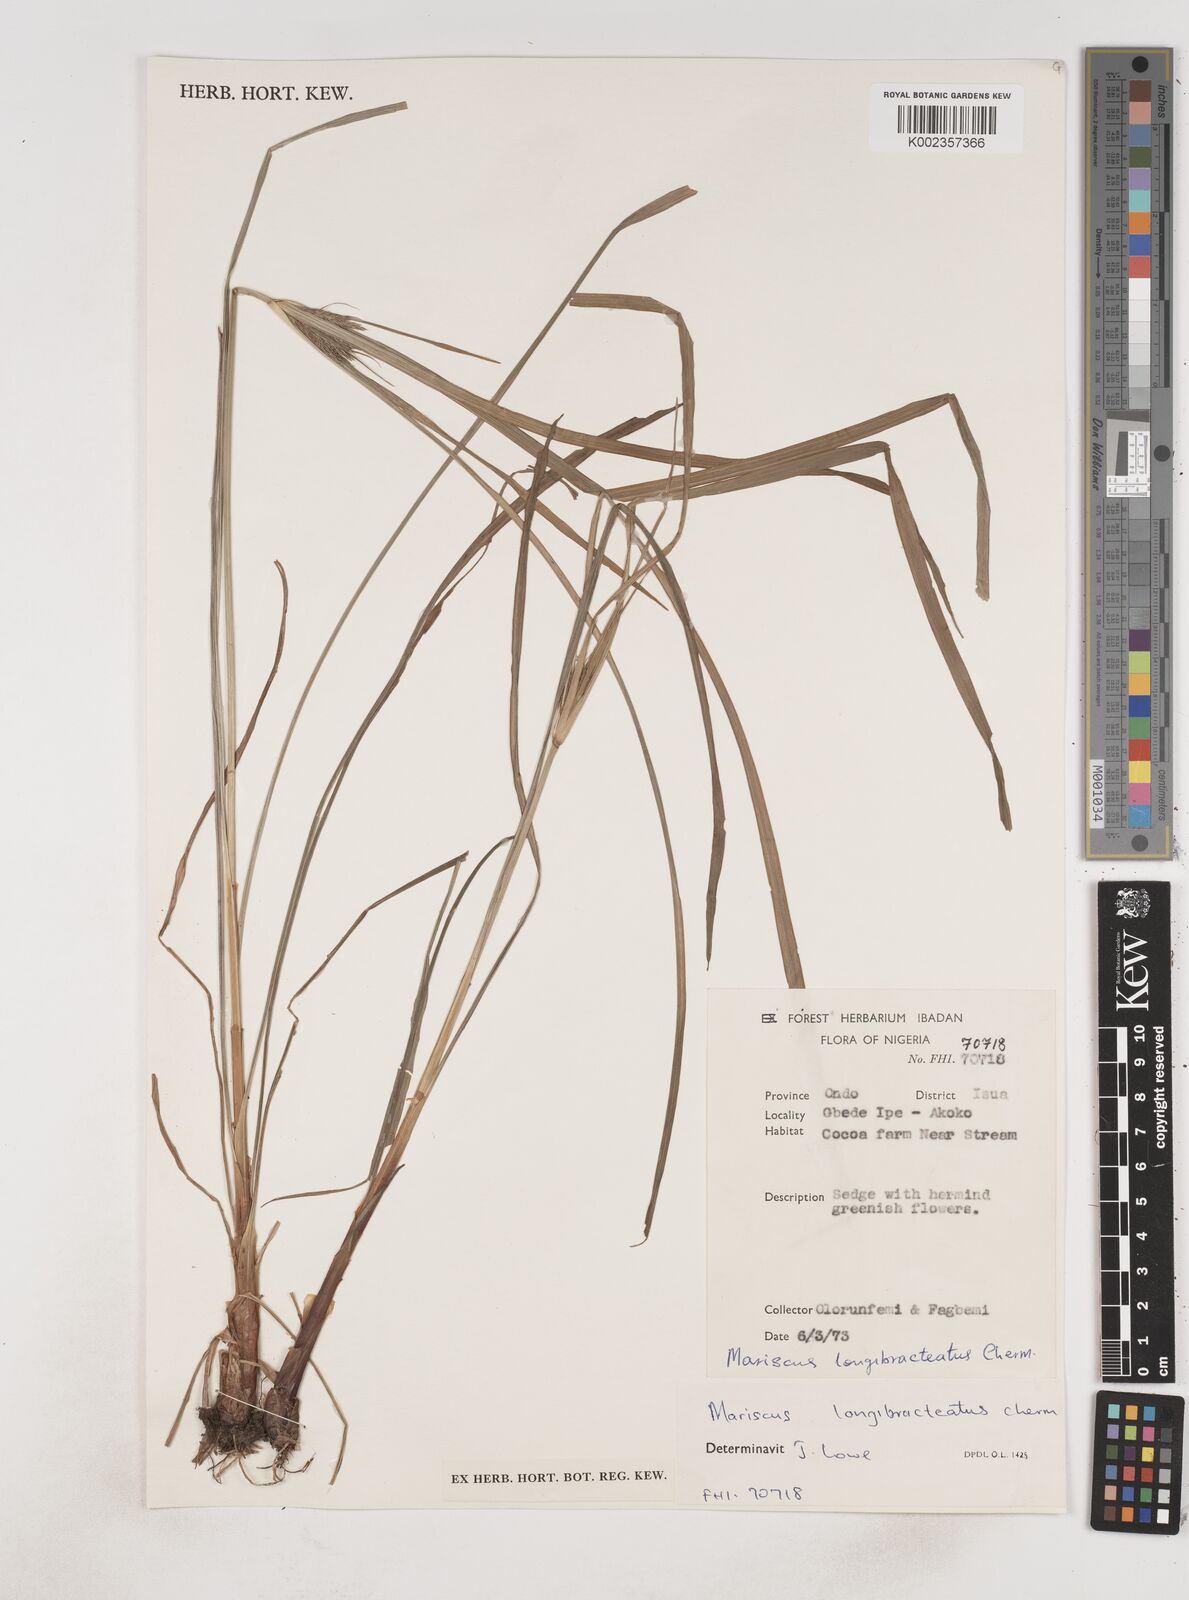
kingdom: Plantae
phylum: Tracheophyta
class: Liliopsida
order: Poales
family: Cyperaceae
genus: Cyperus
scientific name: Cyperus distans
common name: Slender cyperus
